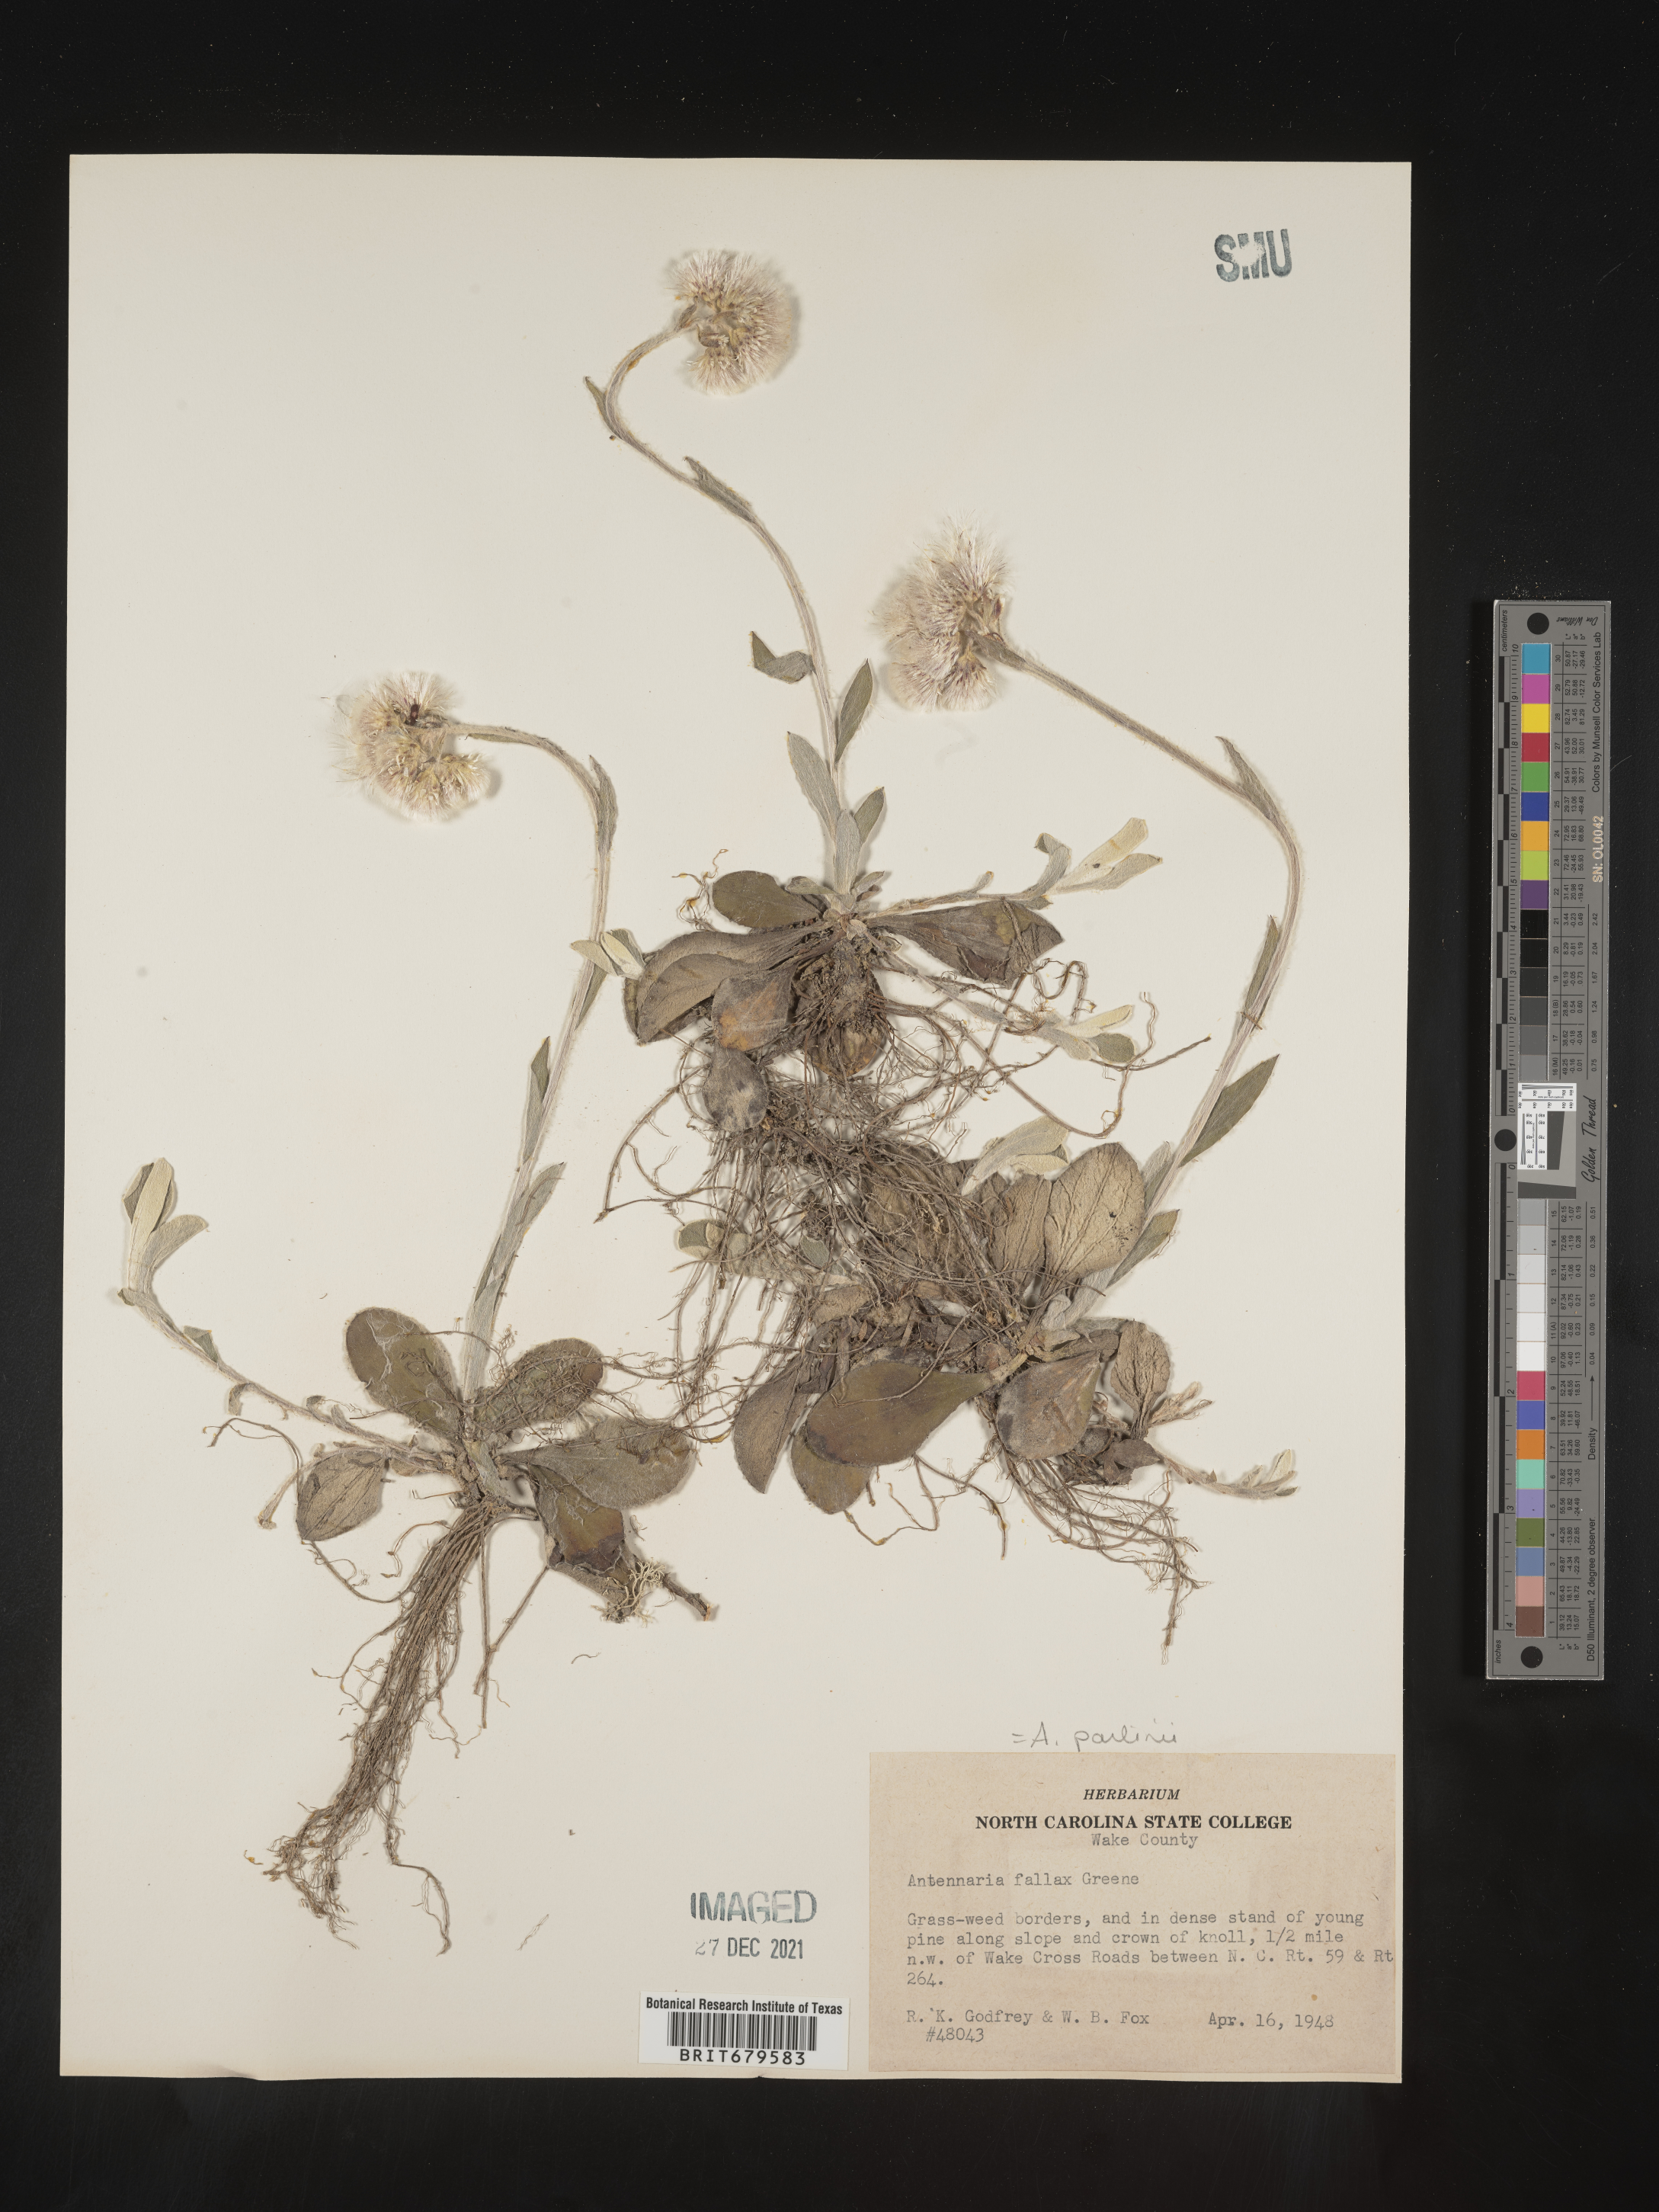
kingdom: Plantae
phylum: Tracheophyta
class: Magnoliopsida
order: Asterales
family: Asteraceae
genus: Antennaria
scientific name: Antennaria parlinii
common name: Parlin's pussytoes
